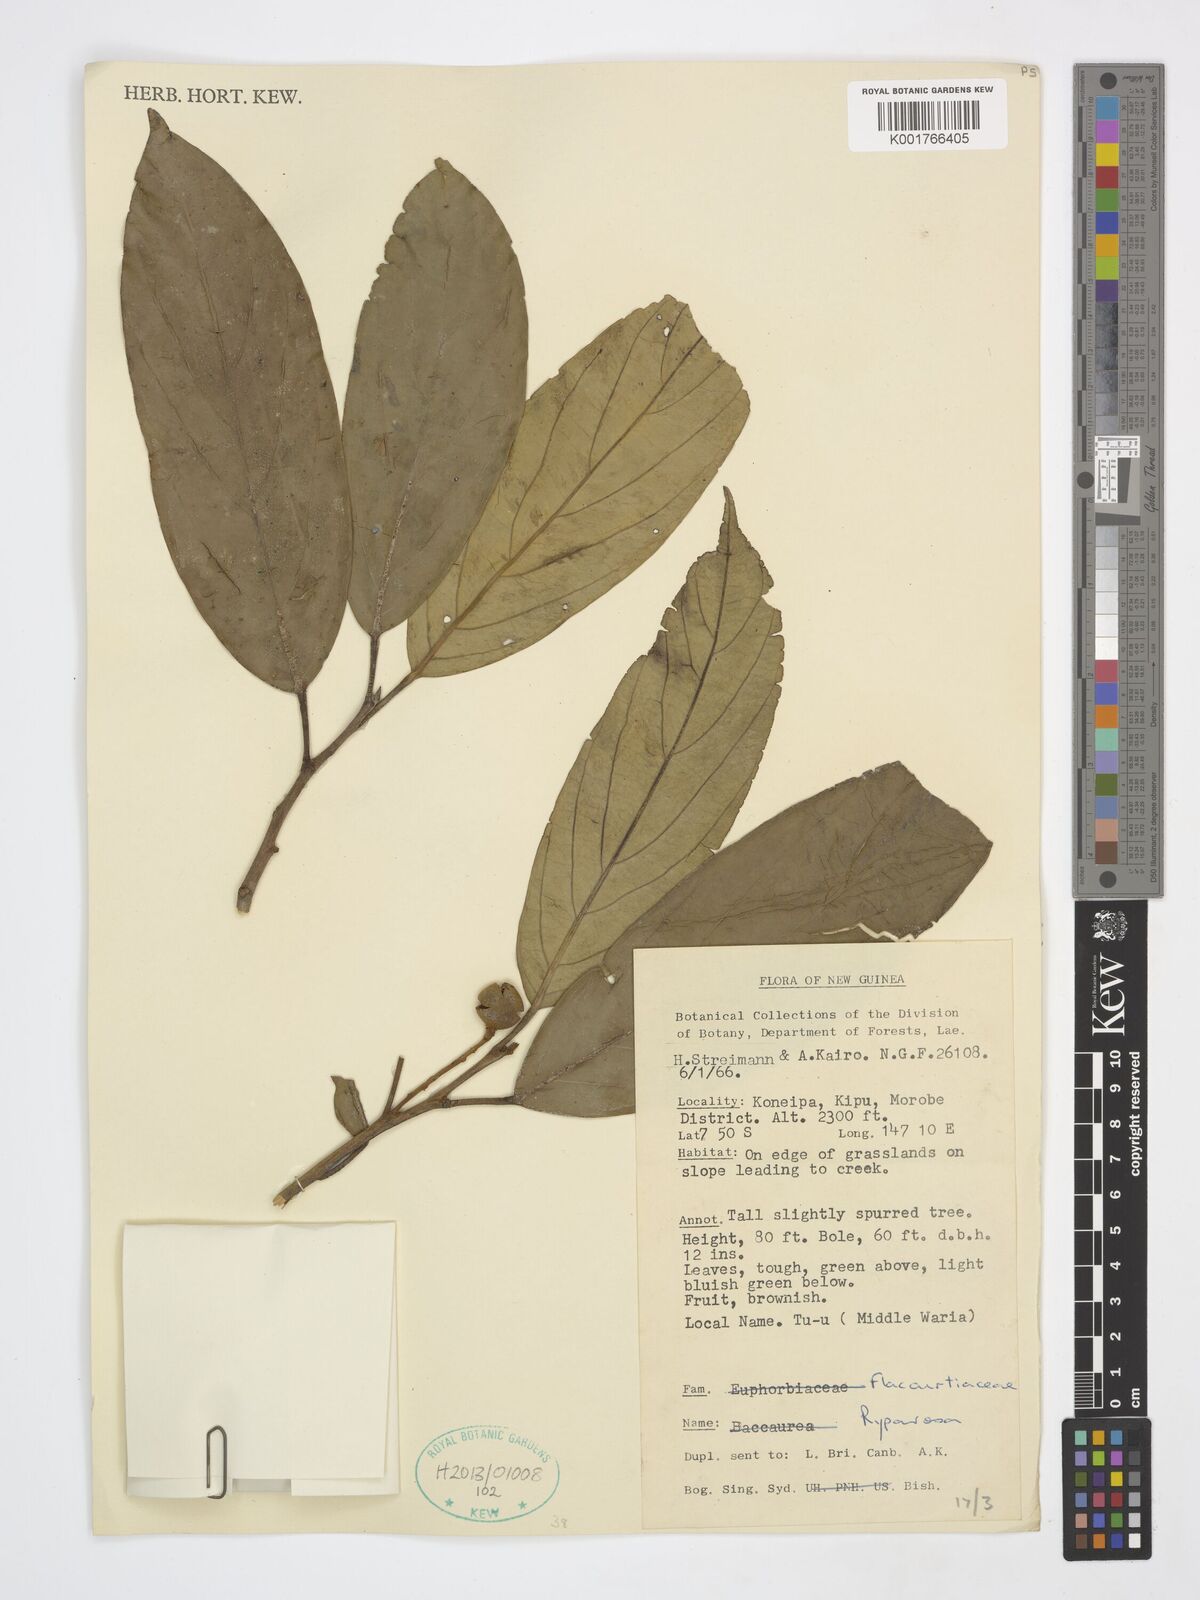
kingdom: Plantae
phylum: Tracheophyta
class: Magnoliopsida
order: Malpighiales
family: Achariaceae
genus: Ryparosa
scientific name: Ryparosa
